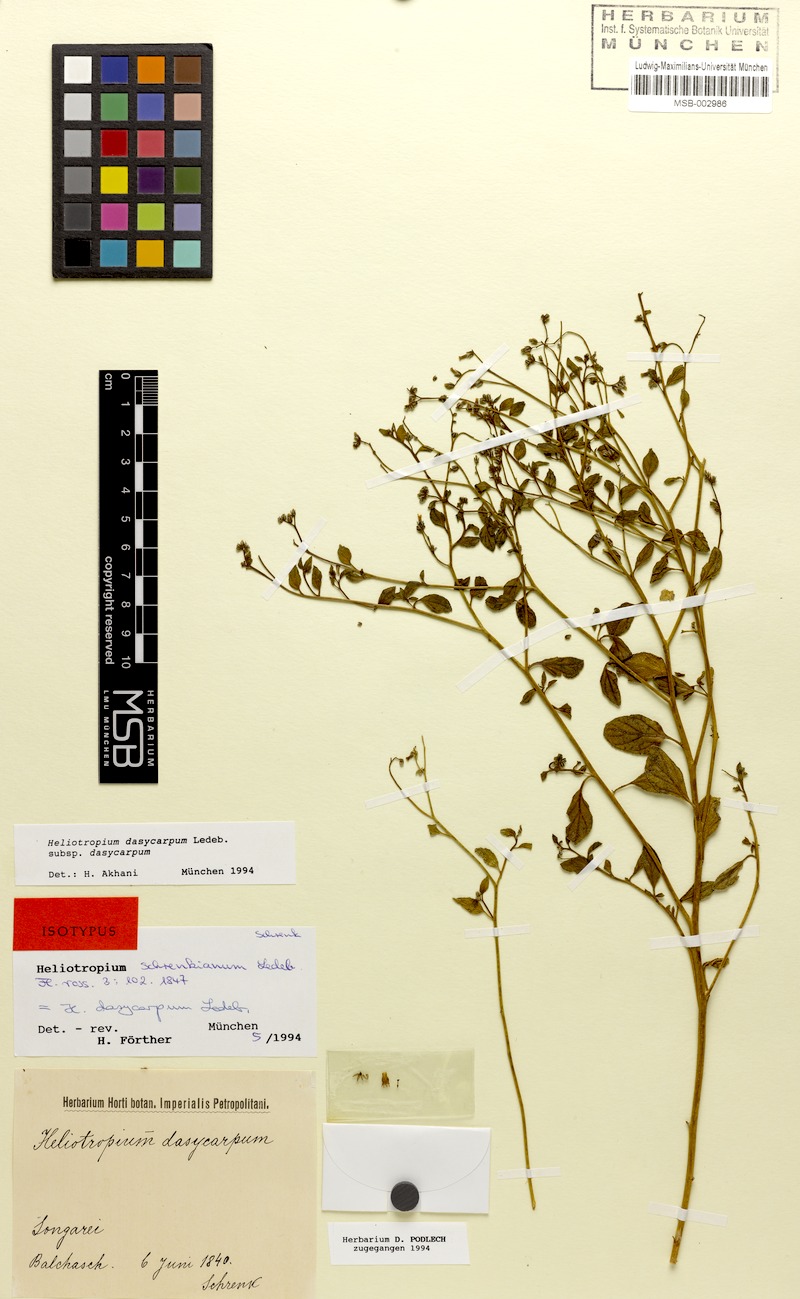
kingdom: Plantae
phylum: Tracheophyta
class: Magnoliopsida
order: Boraginales
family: Heliotropiaceae
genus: Heliotropium
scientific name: Heliotropium dasycarpum
